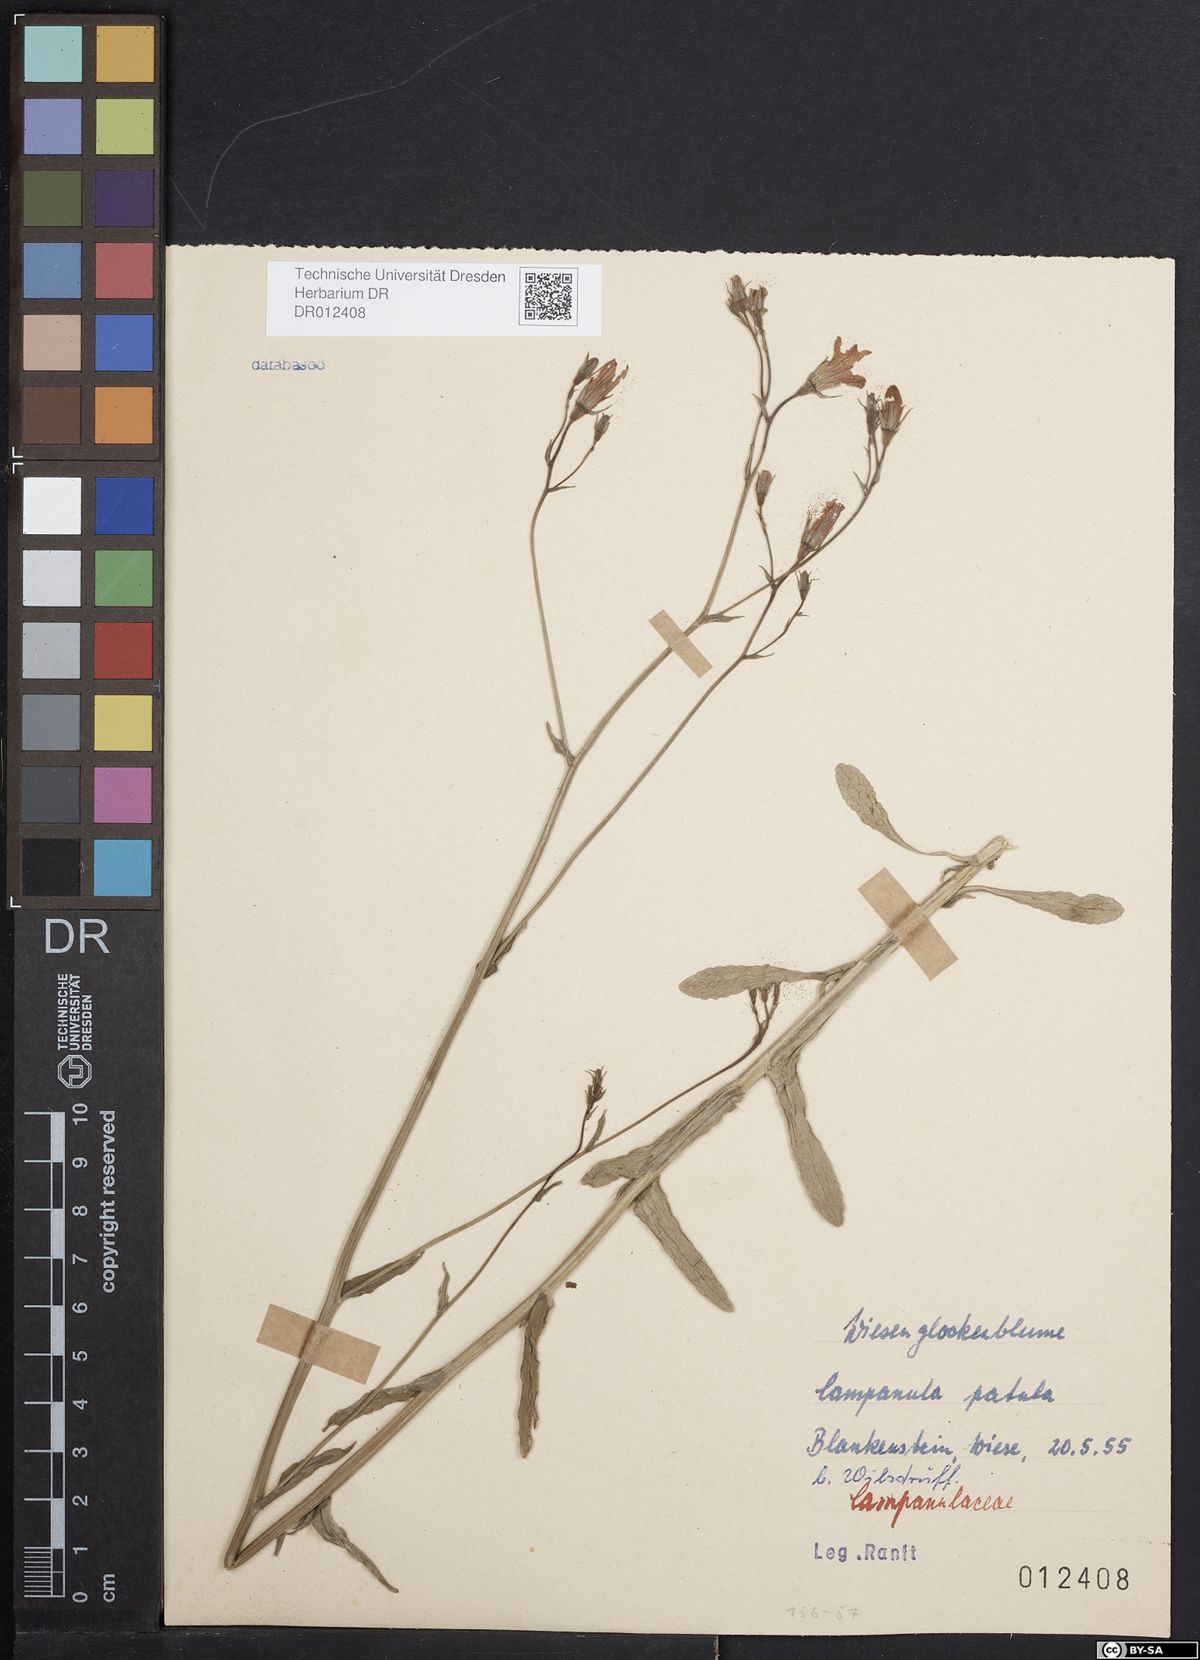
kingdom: Plantae
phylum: Tracheophyta
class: Magnoliopsida
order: Asterales
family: Campanulaceae
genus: Campanula
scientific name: Campanula patula
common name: Spreading bellflower
